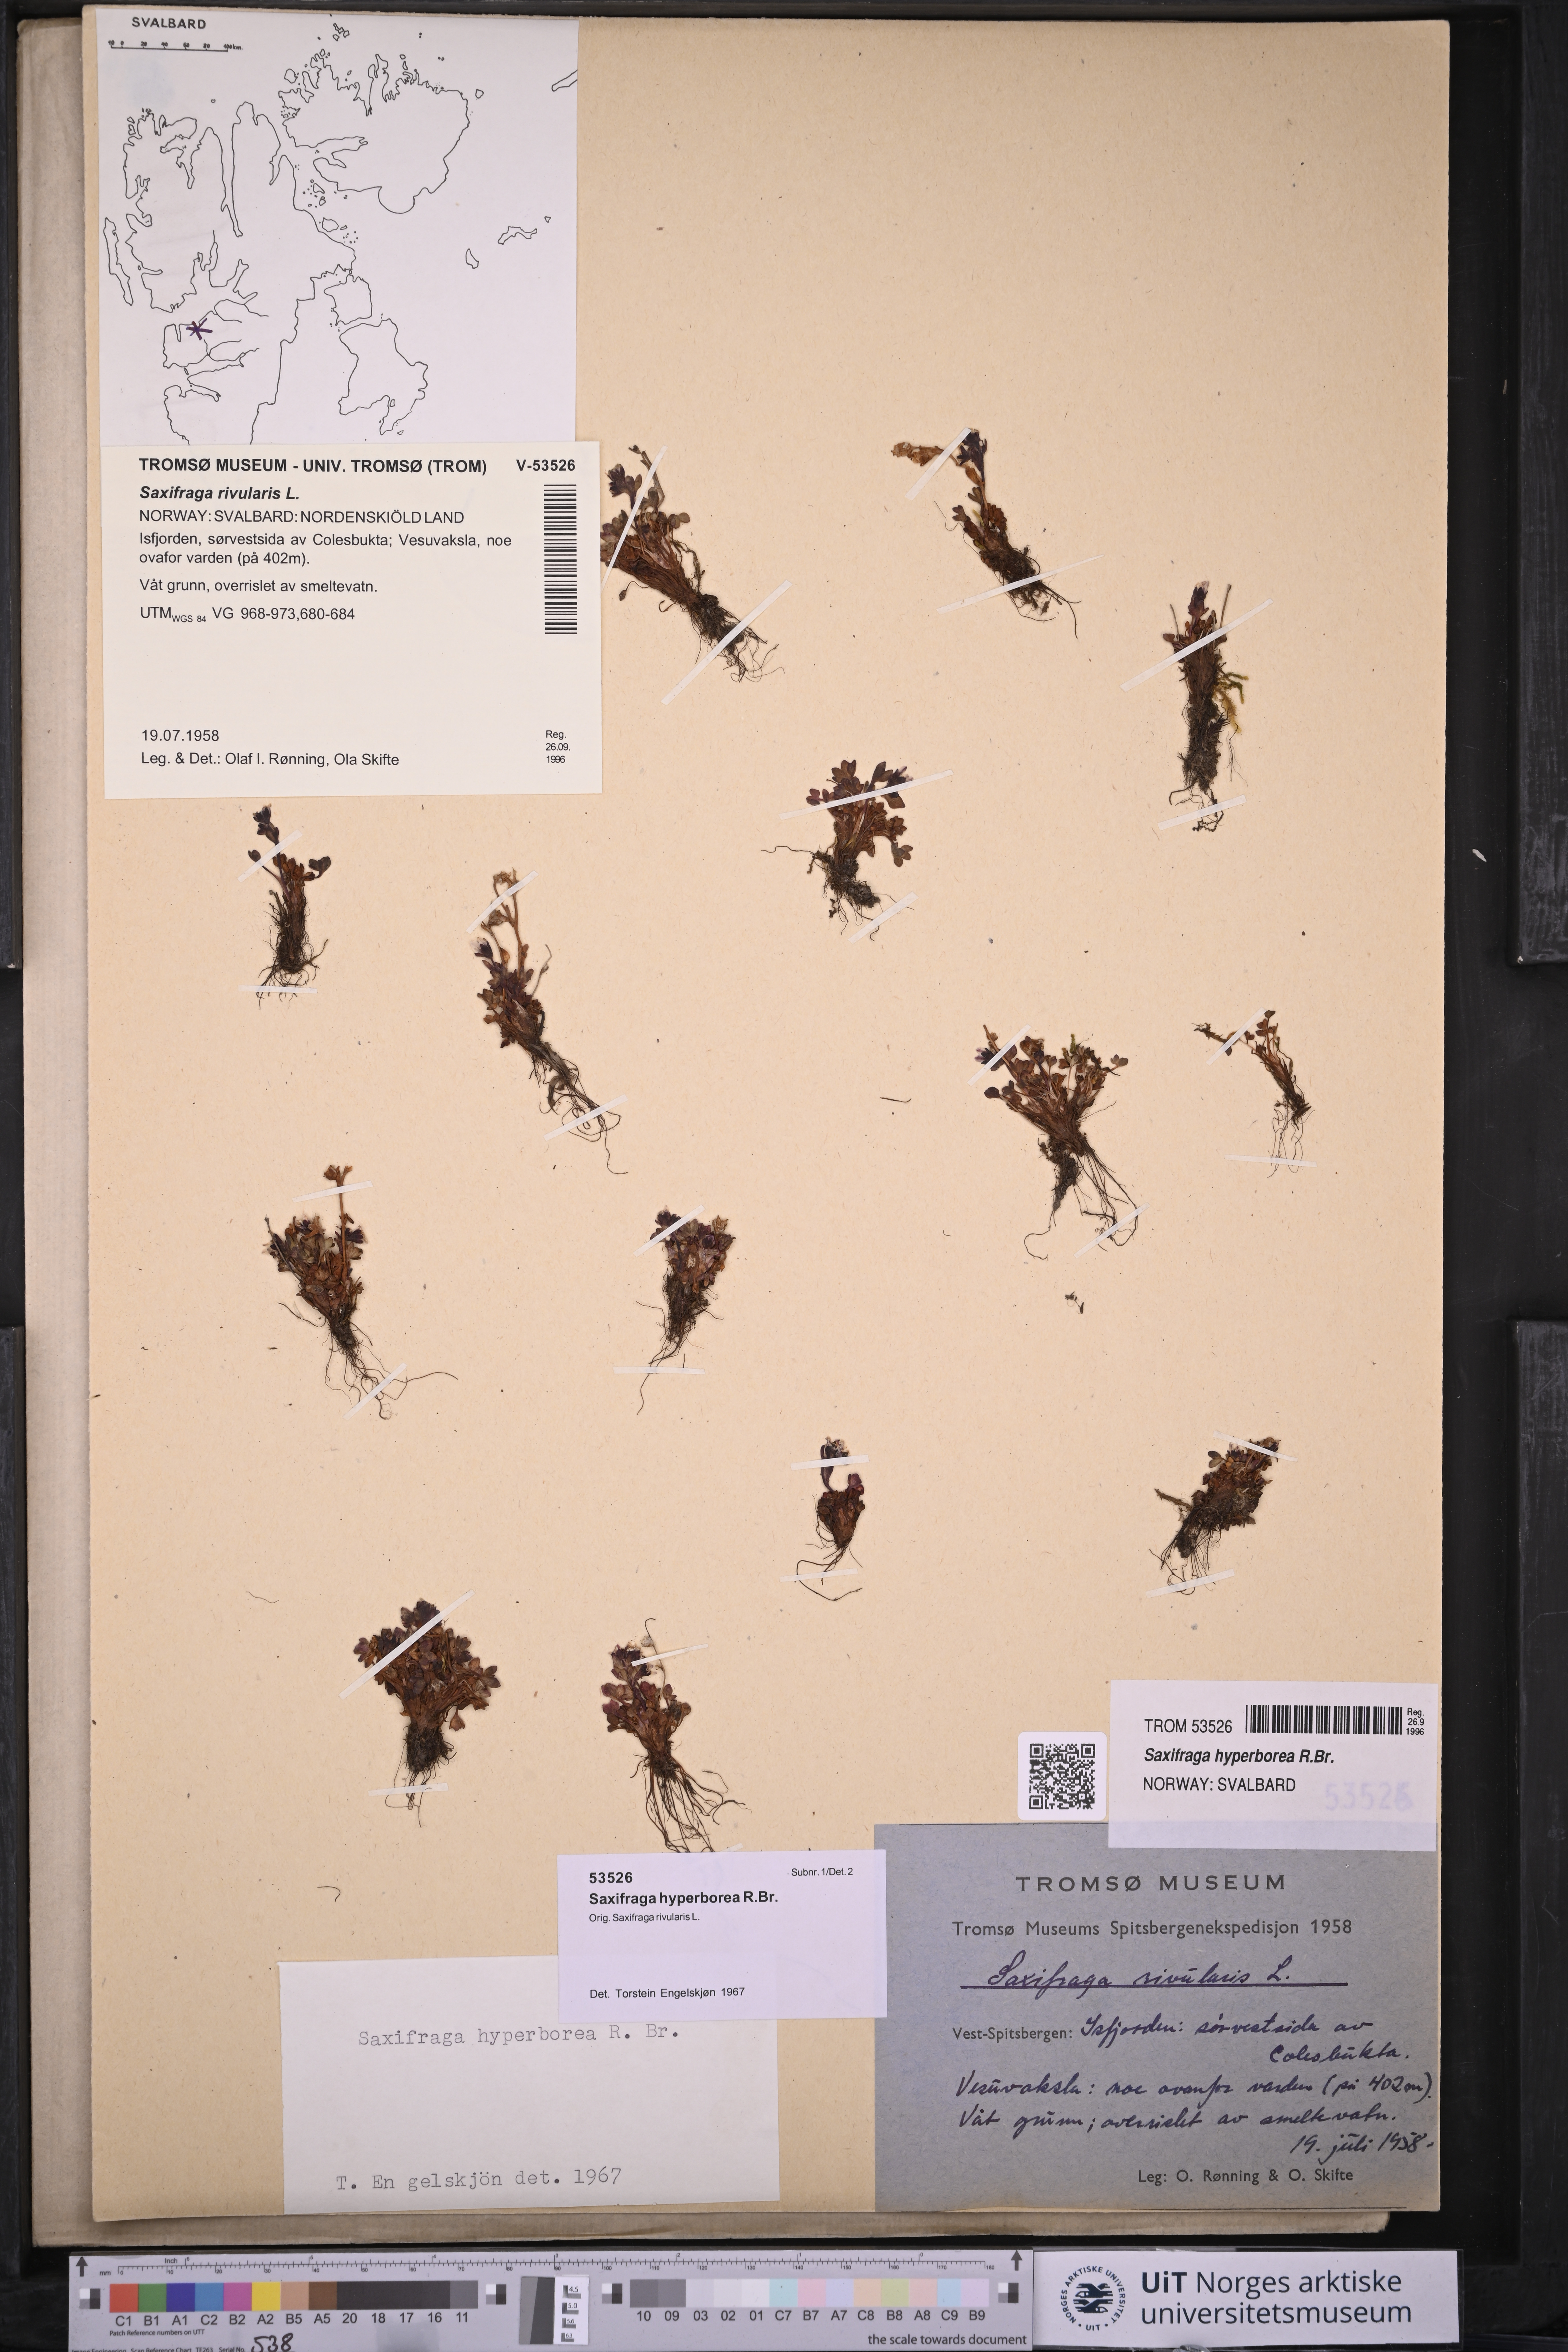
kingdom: Plantae
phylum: Tracheophyta
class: Magnoliopsida
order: Saxifragales
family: Saxifragaceae
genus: Saxifraga
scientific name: Saxifraga hyperborea
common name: Arctic saxifrage
